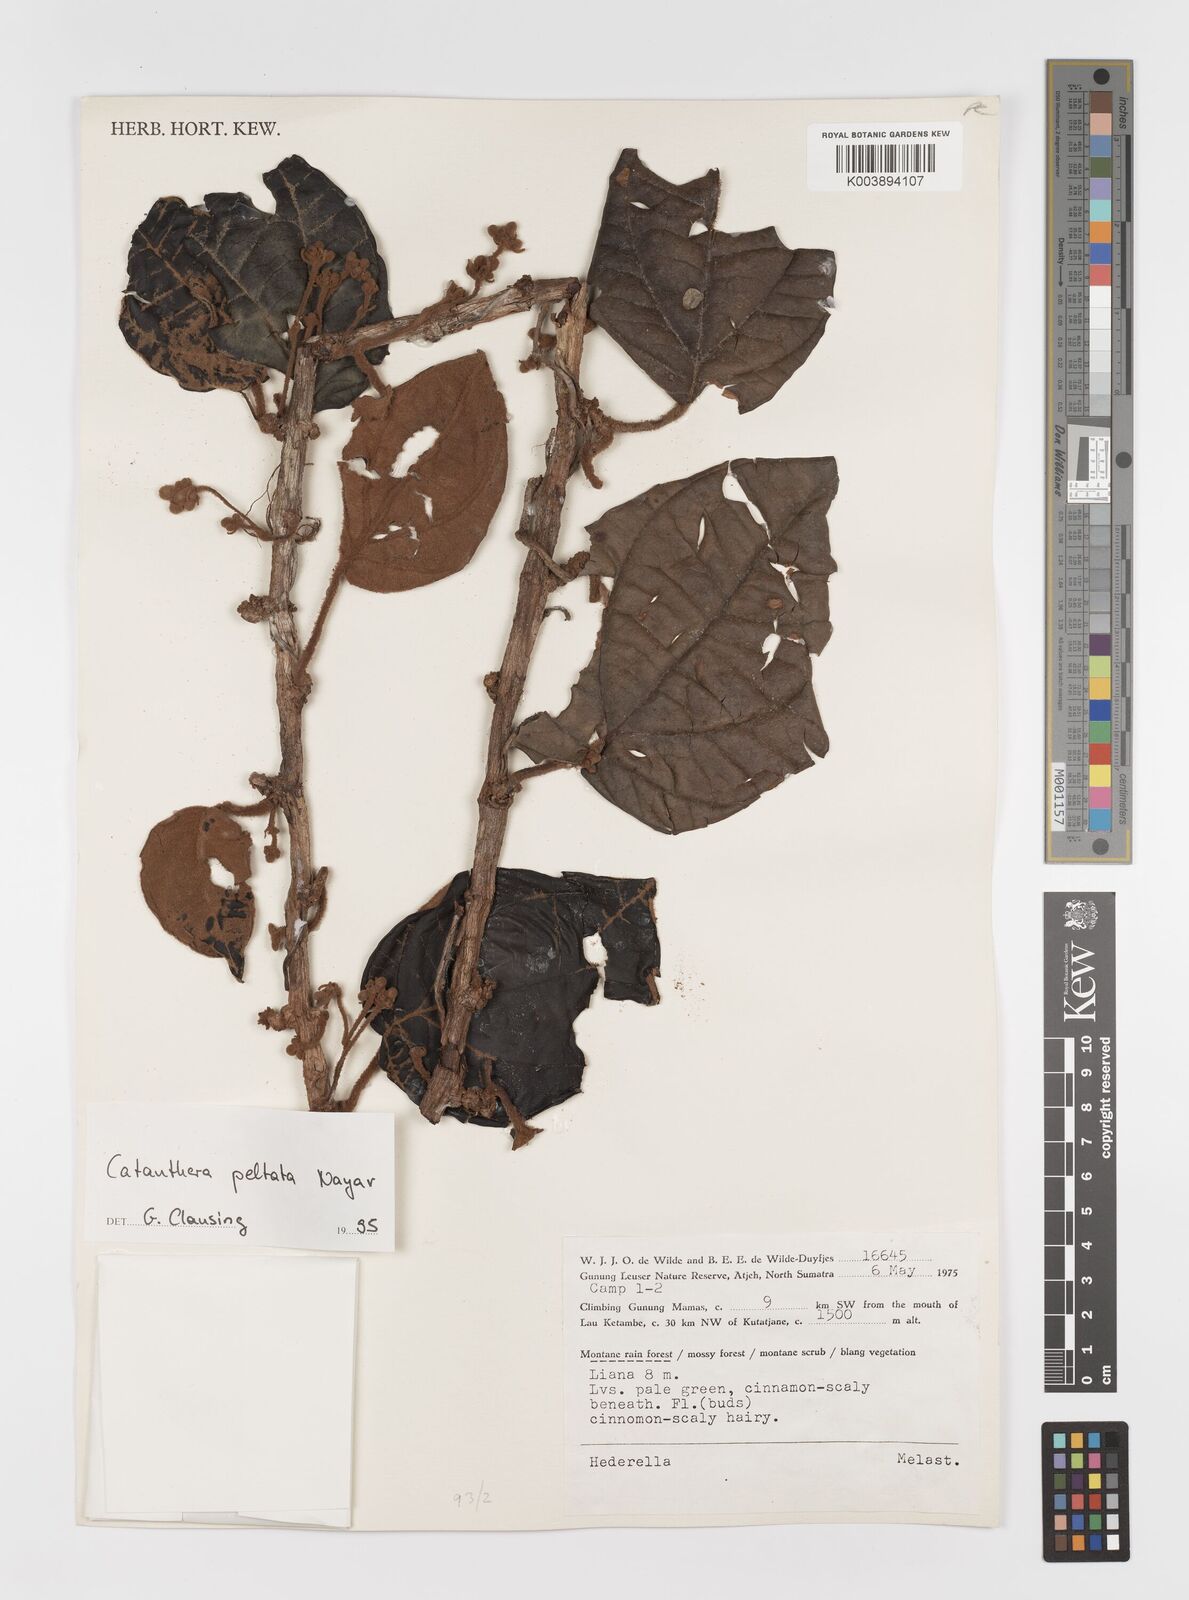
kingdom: Plantae
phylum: Tracheophyta
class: Magnoliopsida
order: Myrtales
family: Melastomataceae
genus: Catanthera
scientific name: Catanthera peltata
